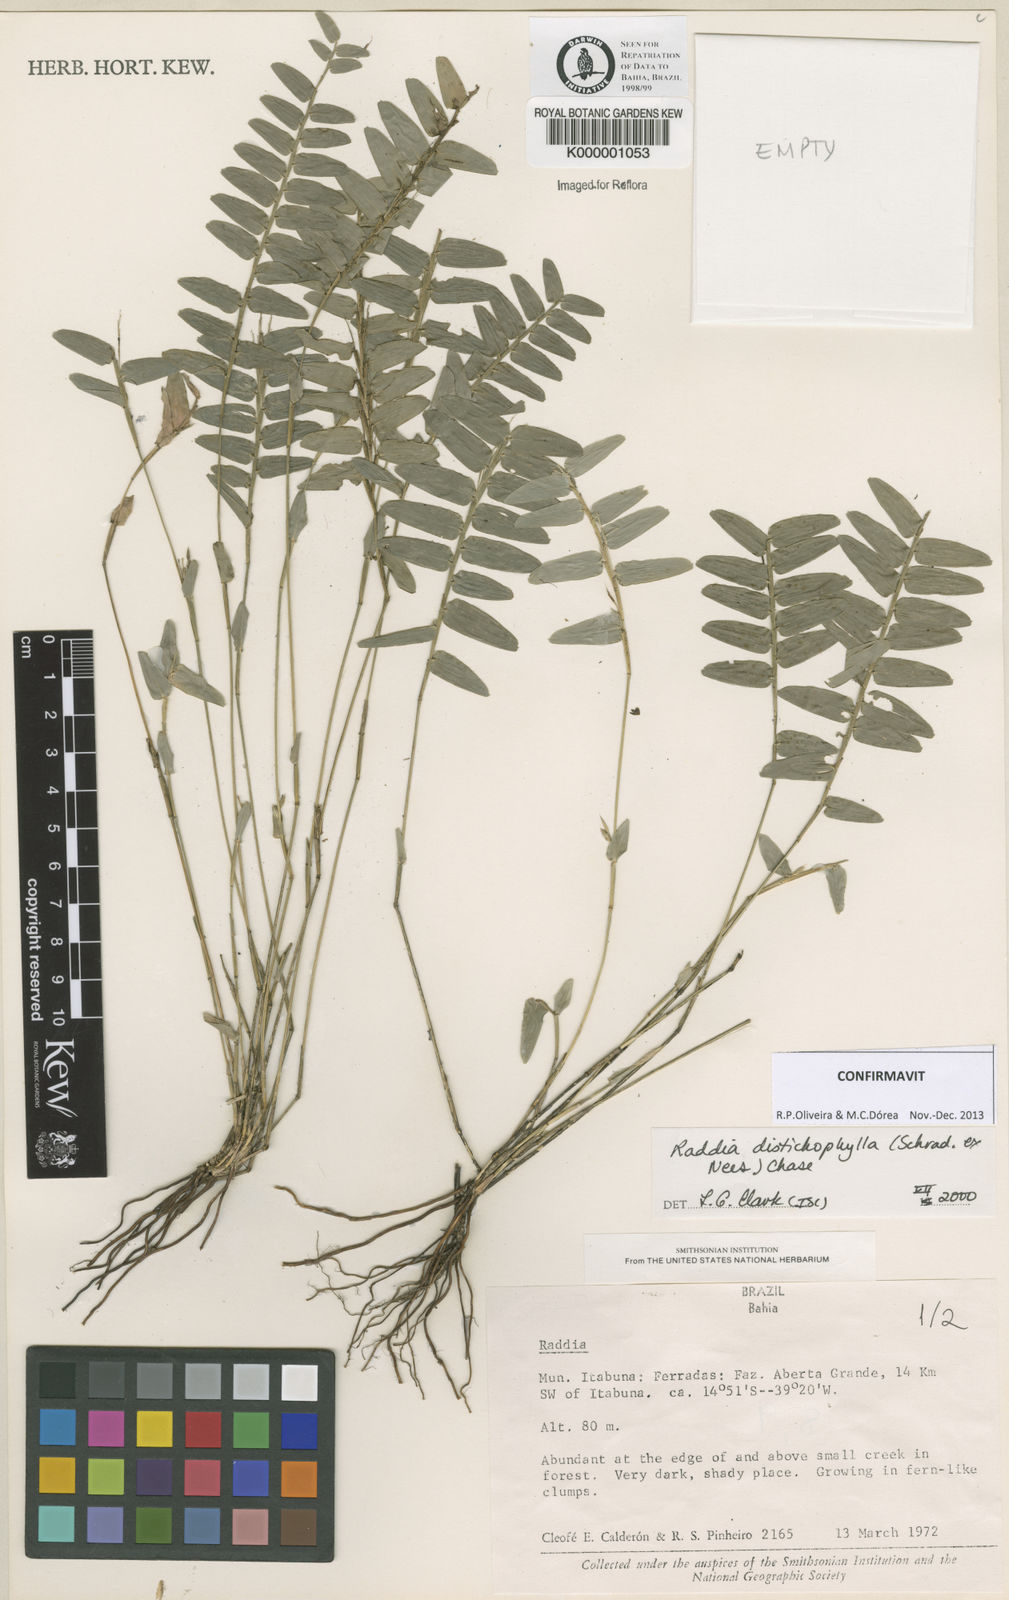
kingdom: Plantae
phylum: Tracheophyta
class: Liliopsida
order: Poales
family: Poaceae
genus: Raddia
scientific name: Raddia distichophylla
